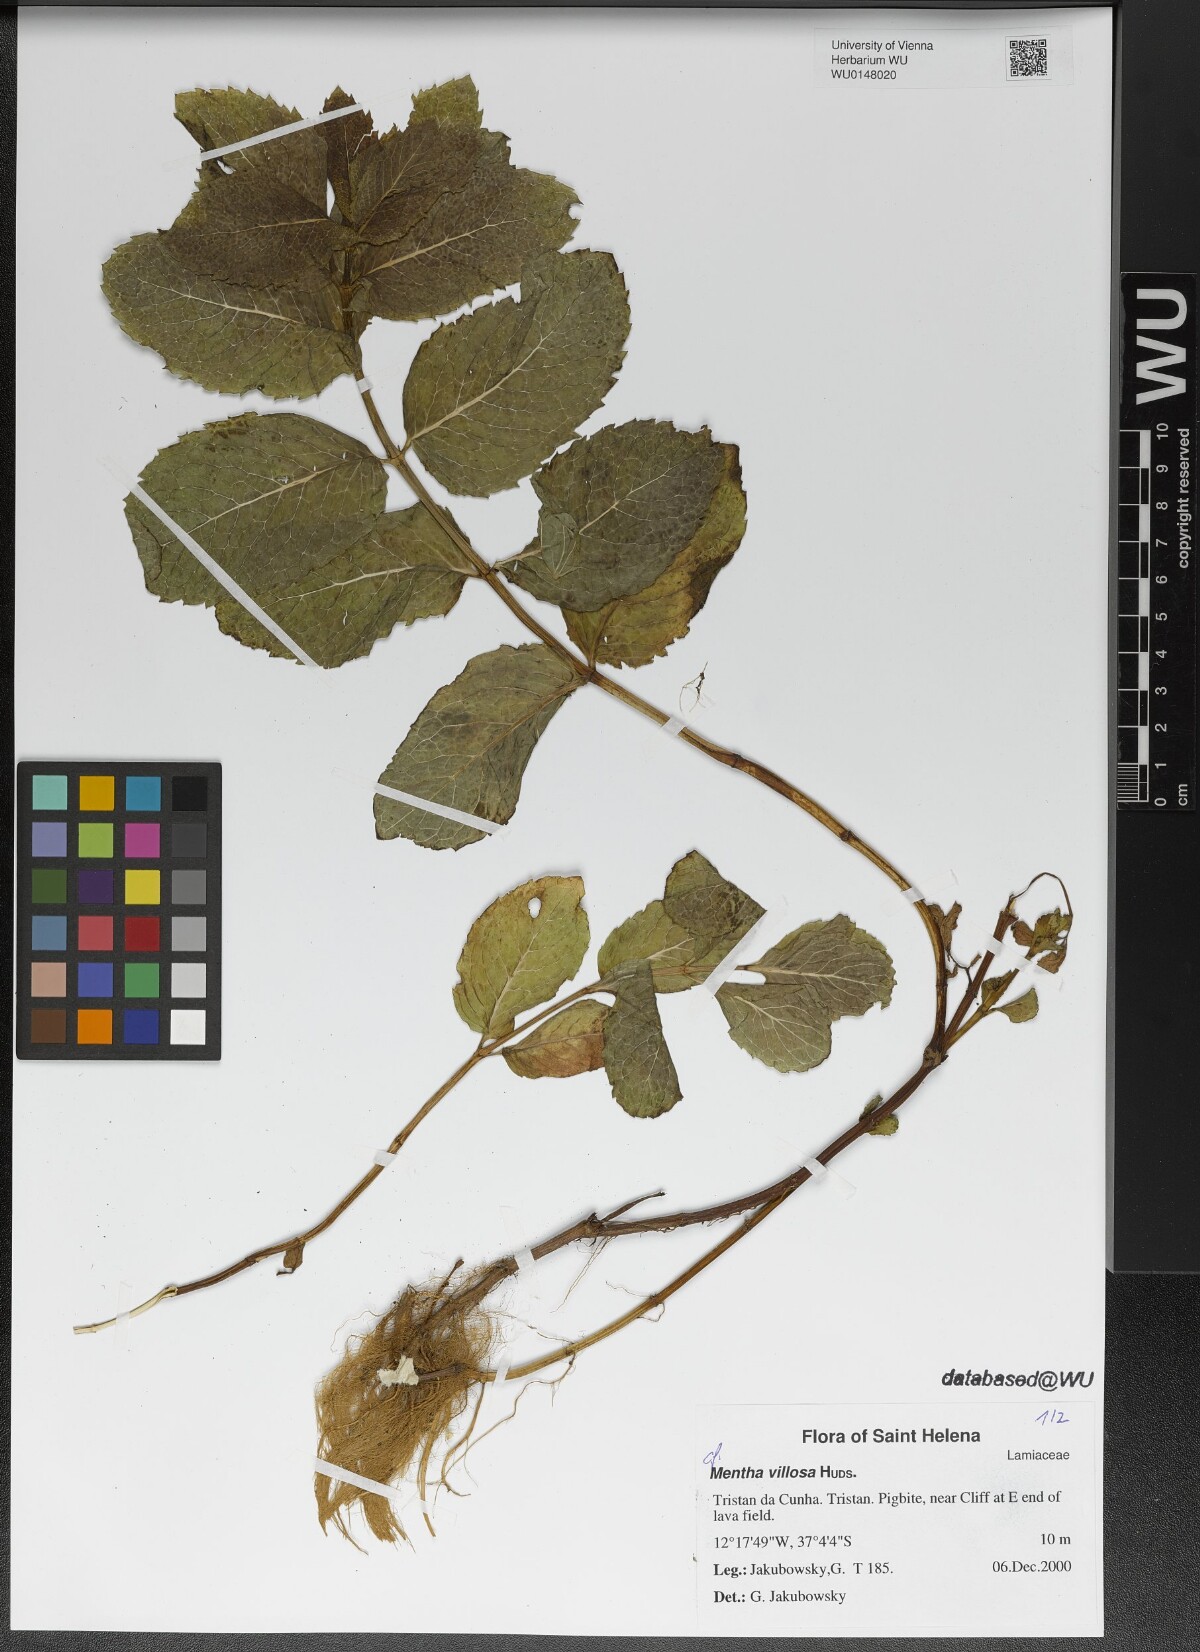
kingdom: Plantae
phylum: Tracheophyta
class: Magnoliopsida
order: Lamiales
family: Lamiaceae
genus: Mentha
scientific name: Mentha villosa
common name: Apple mint
